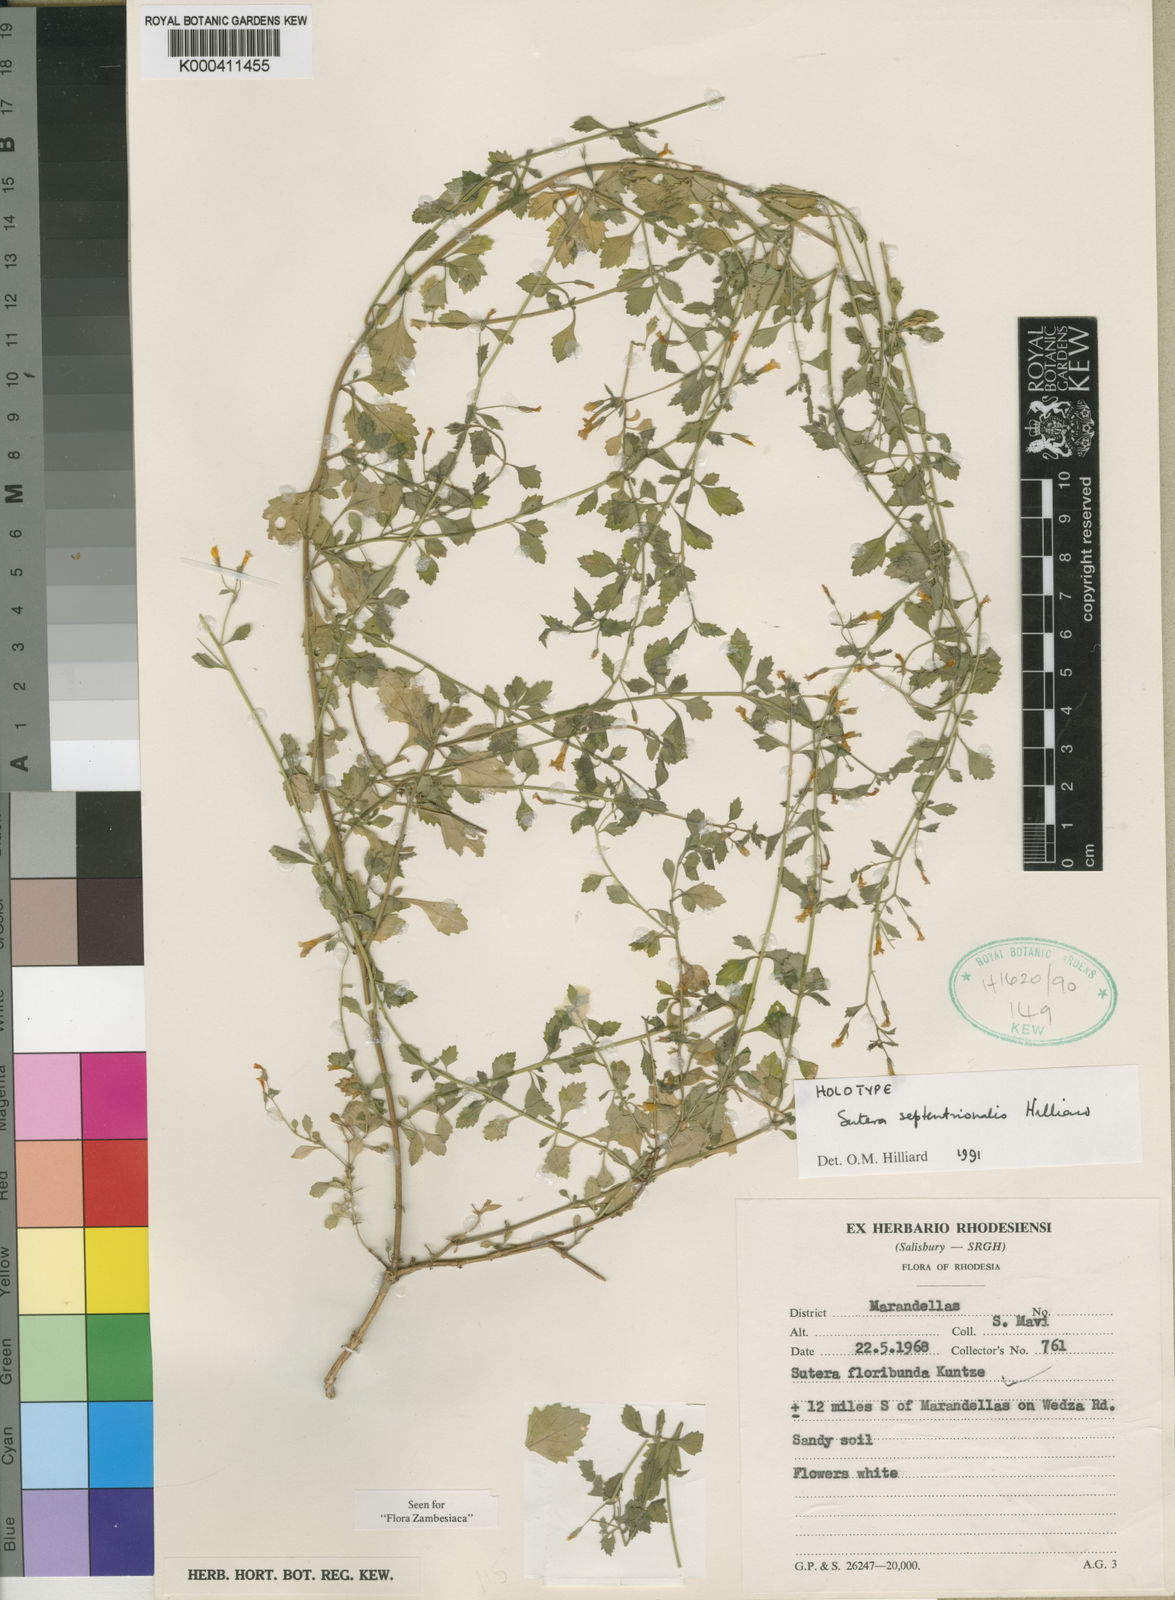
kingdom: Plantae
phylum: Tracheophyta
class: Magnoliopsida
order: Lamiales
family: Scrophulariaceae
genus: Chaenostoma
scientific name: Chaenostoma septentrionale
